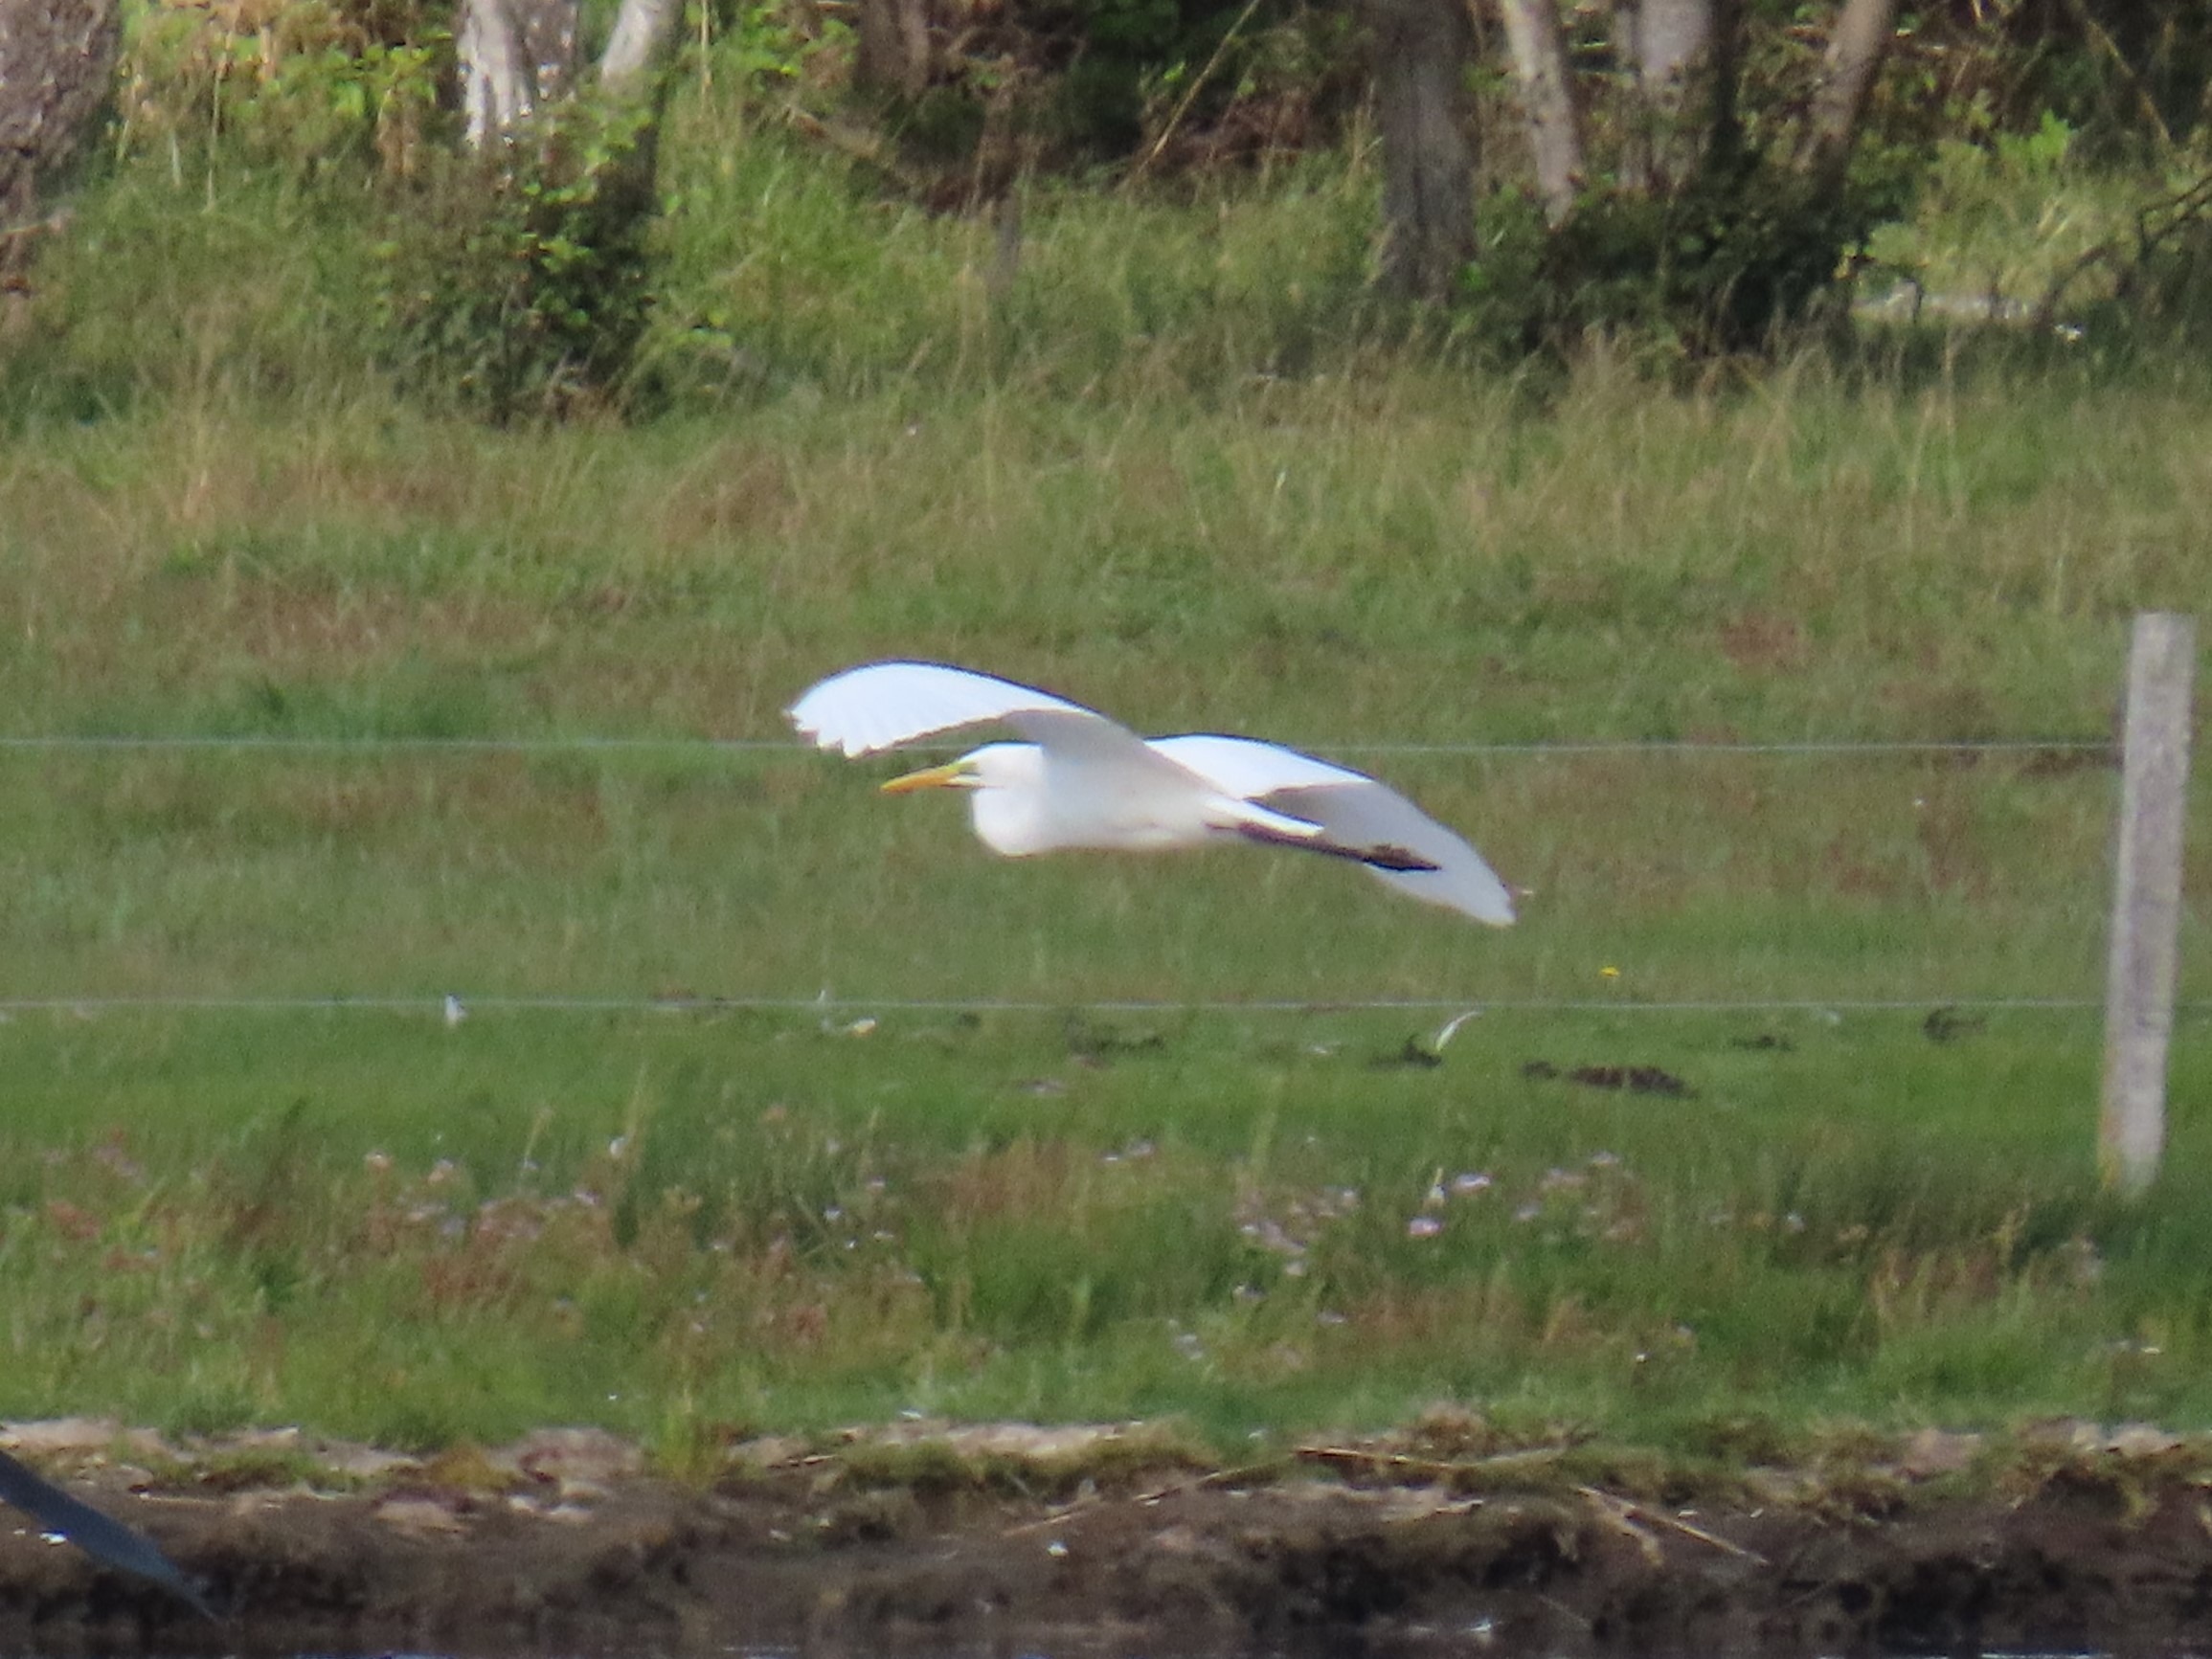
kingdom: Animalia
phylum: Chordata
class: Aves
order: Pelecaniformes
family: Ardeidae
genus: Ardea
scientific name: Ardea alba
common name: Sølvhejre
